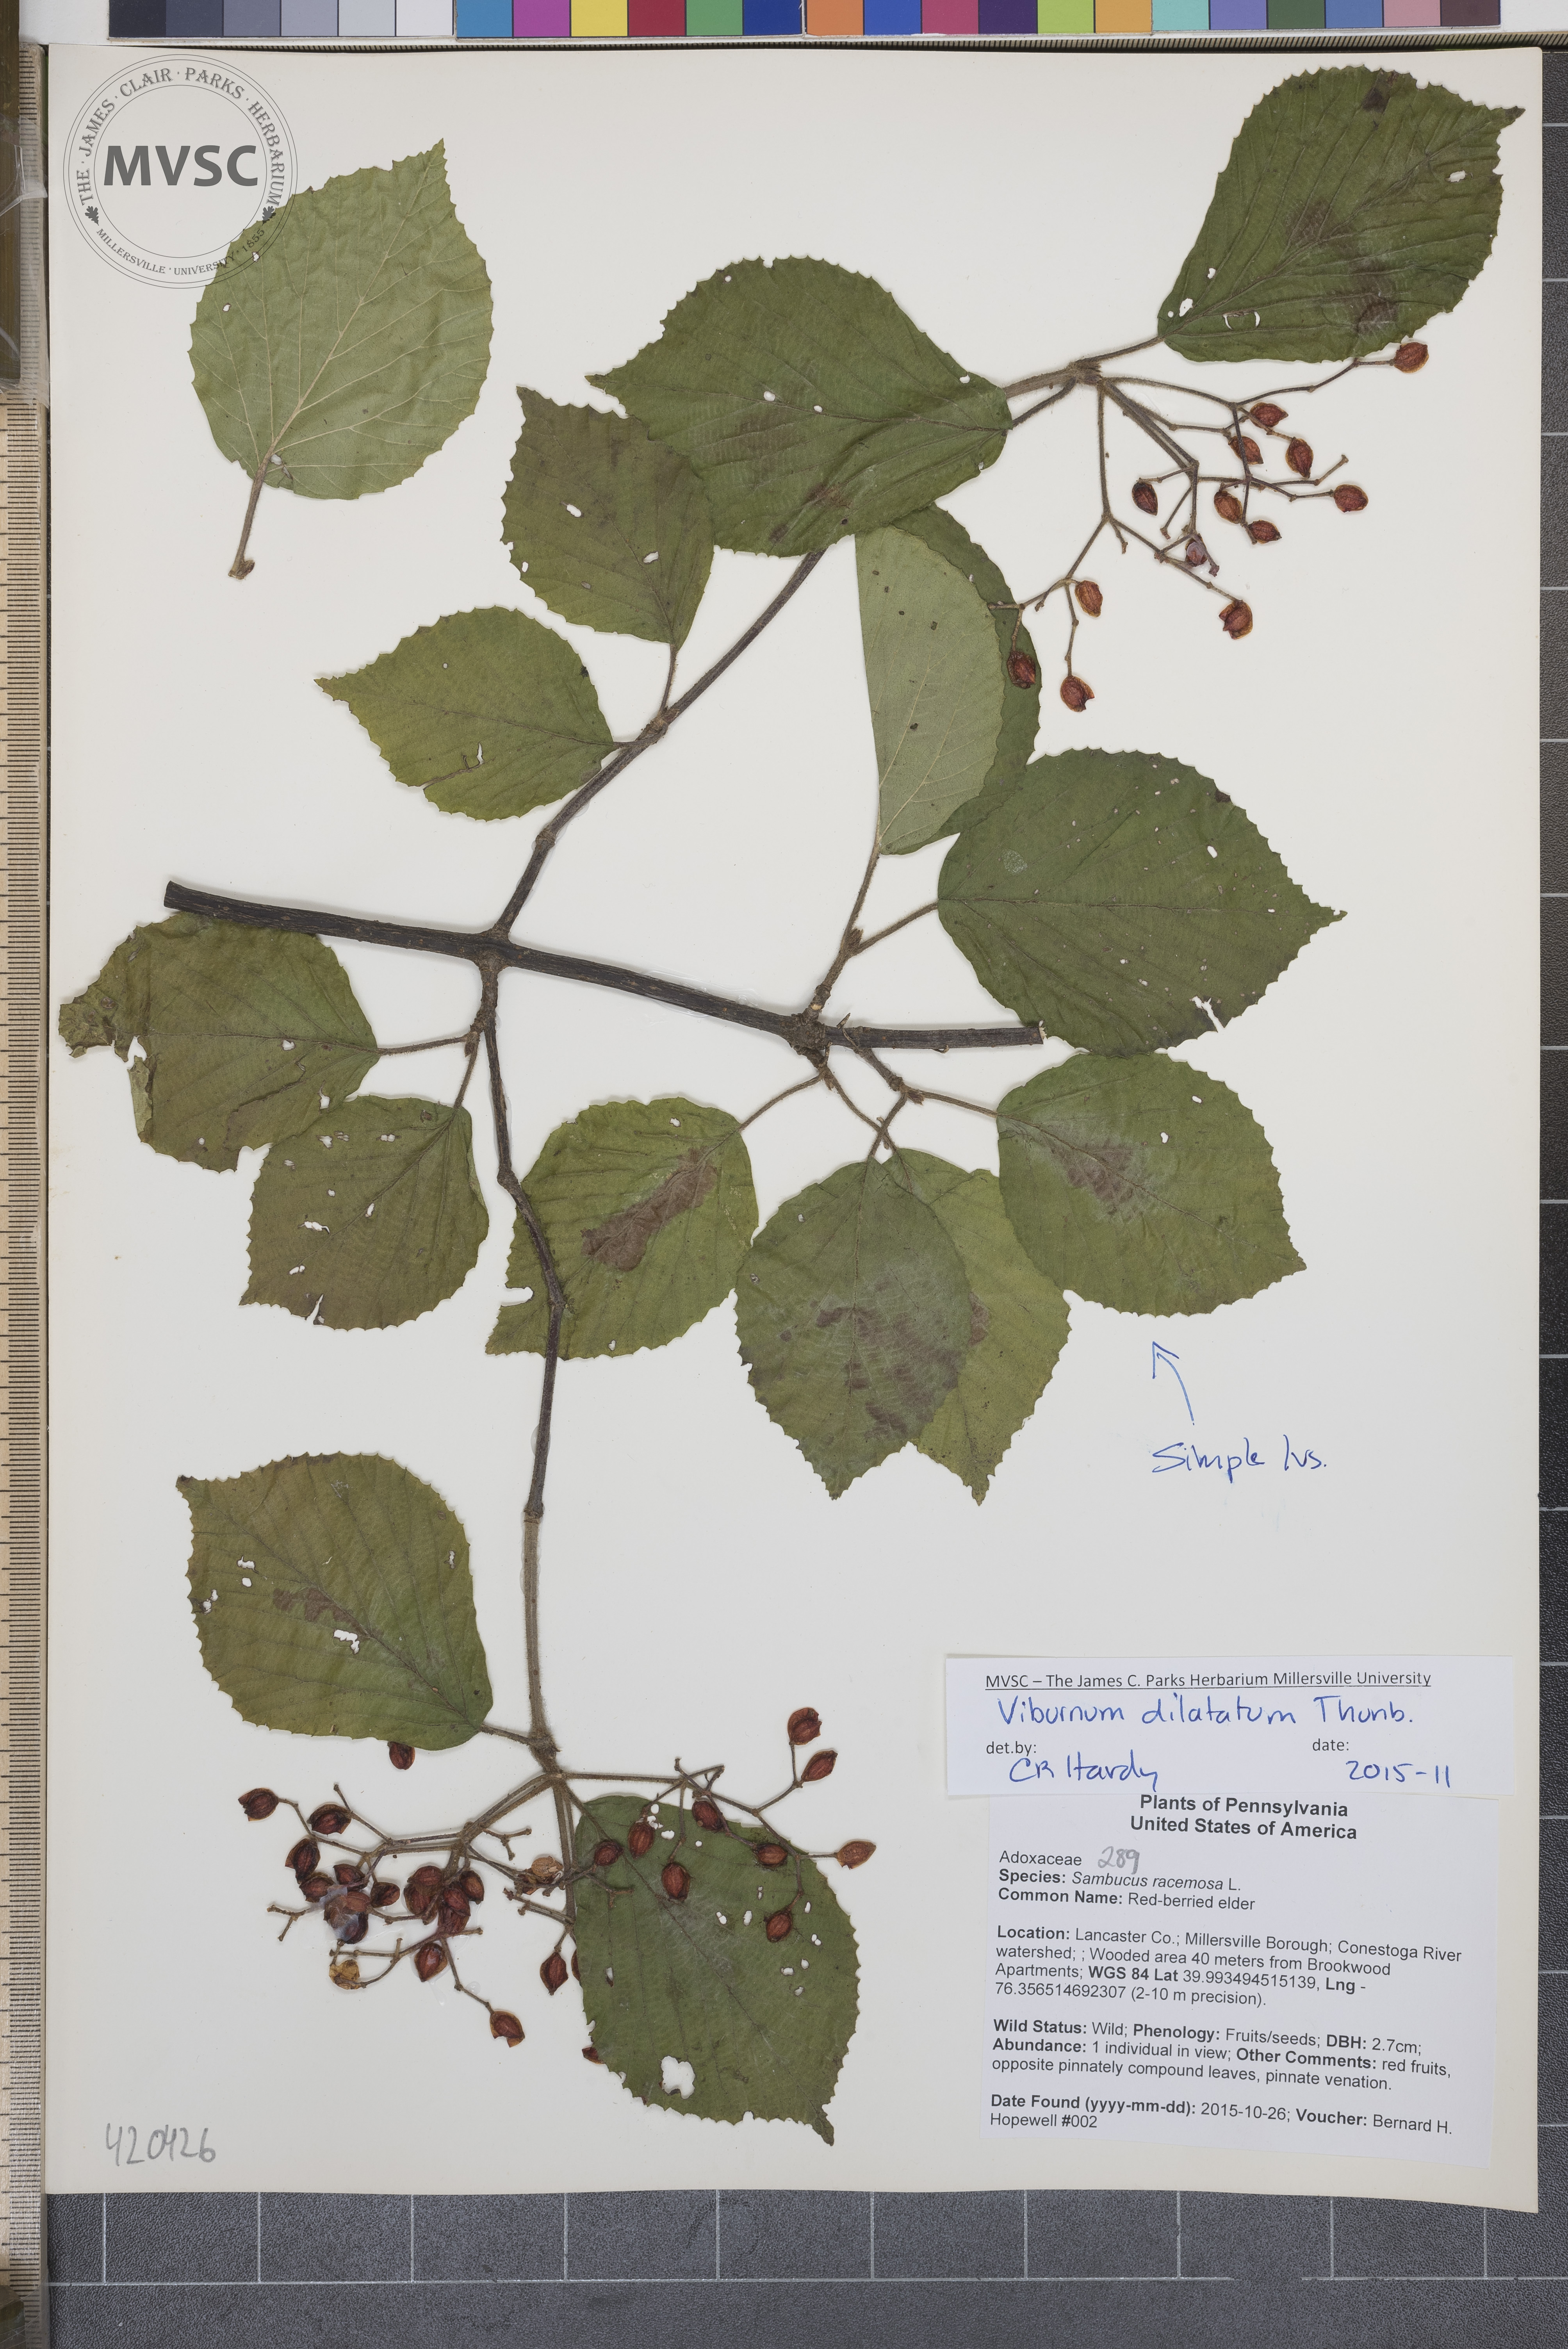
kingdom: Plantae
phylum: Tracheophyta
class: Magnoliopsida
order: Dipsacales
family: Viburnaceae
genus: Viburnum
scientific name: Viburnum dilatatum
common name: Linden Viburnum
